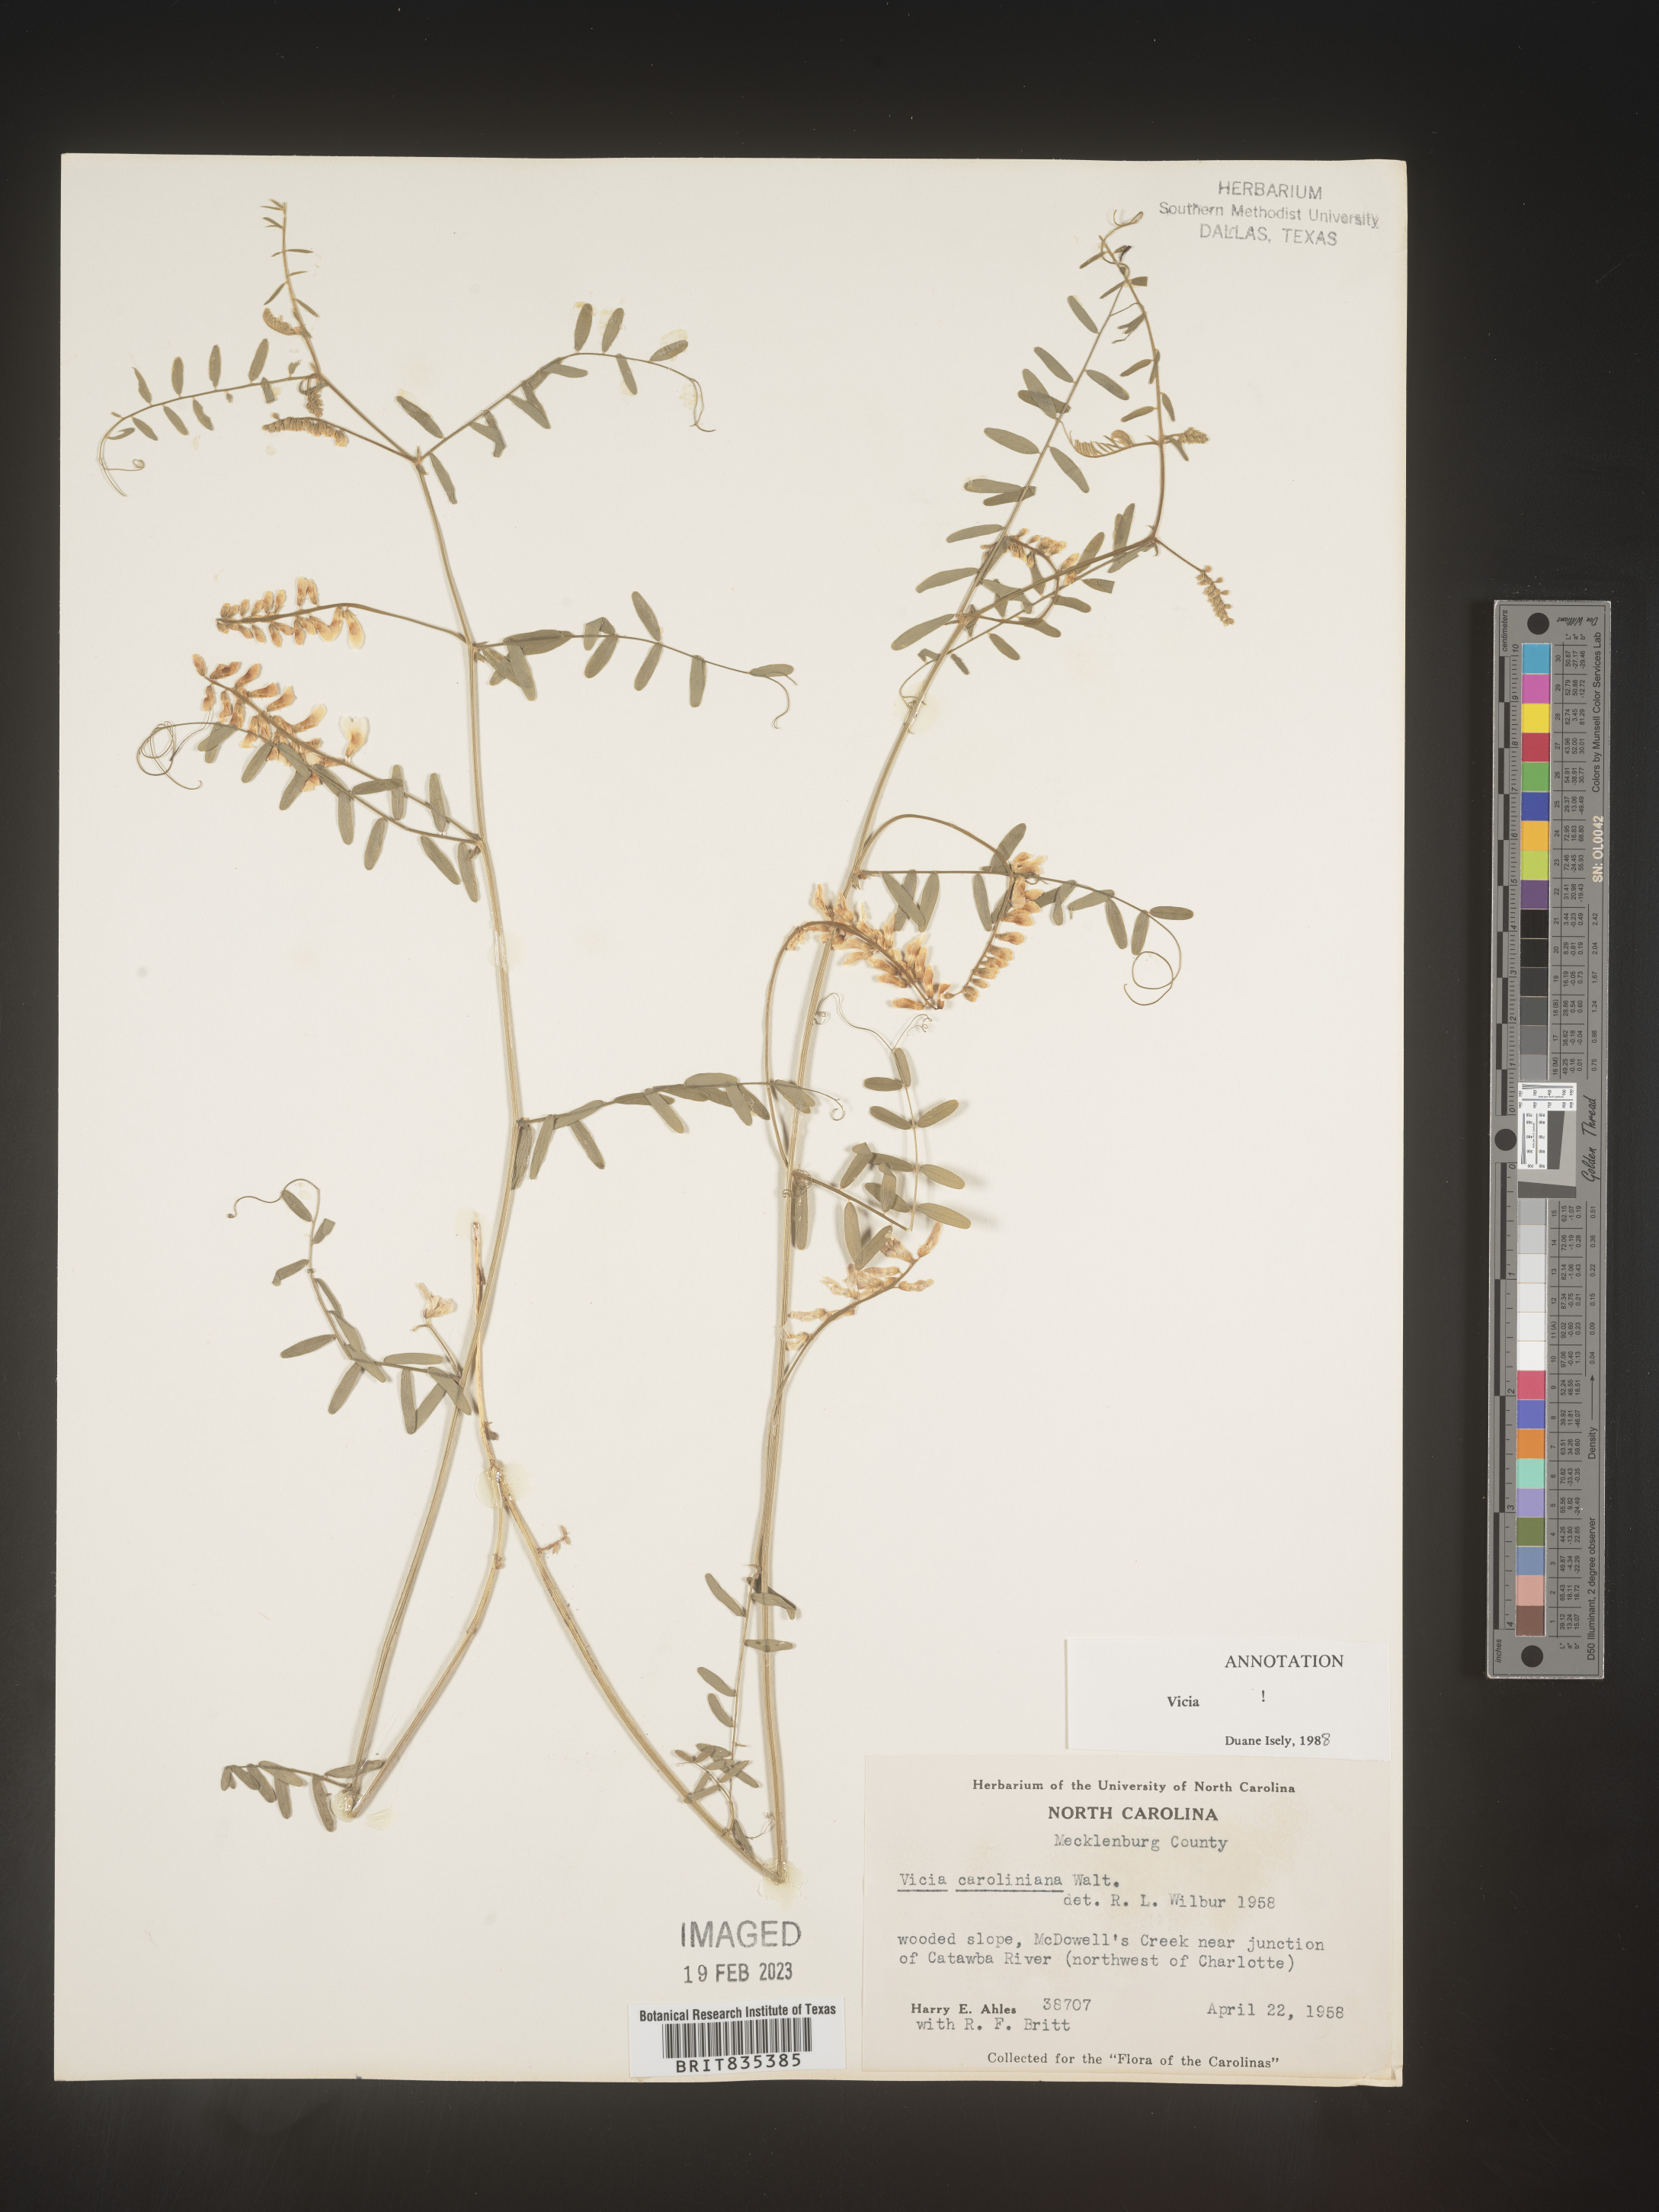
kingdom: Plantae
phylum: Tracheophyta
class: Magnoliopsida
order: Fabales
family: Fabaceae
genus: Vicia
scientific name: Vicia caroliniana
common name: Carolina vetch
